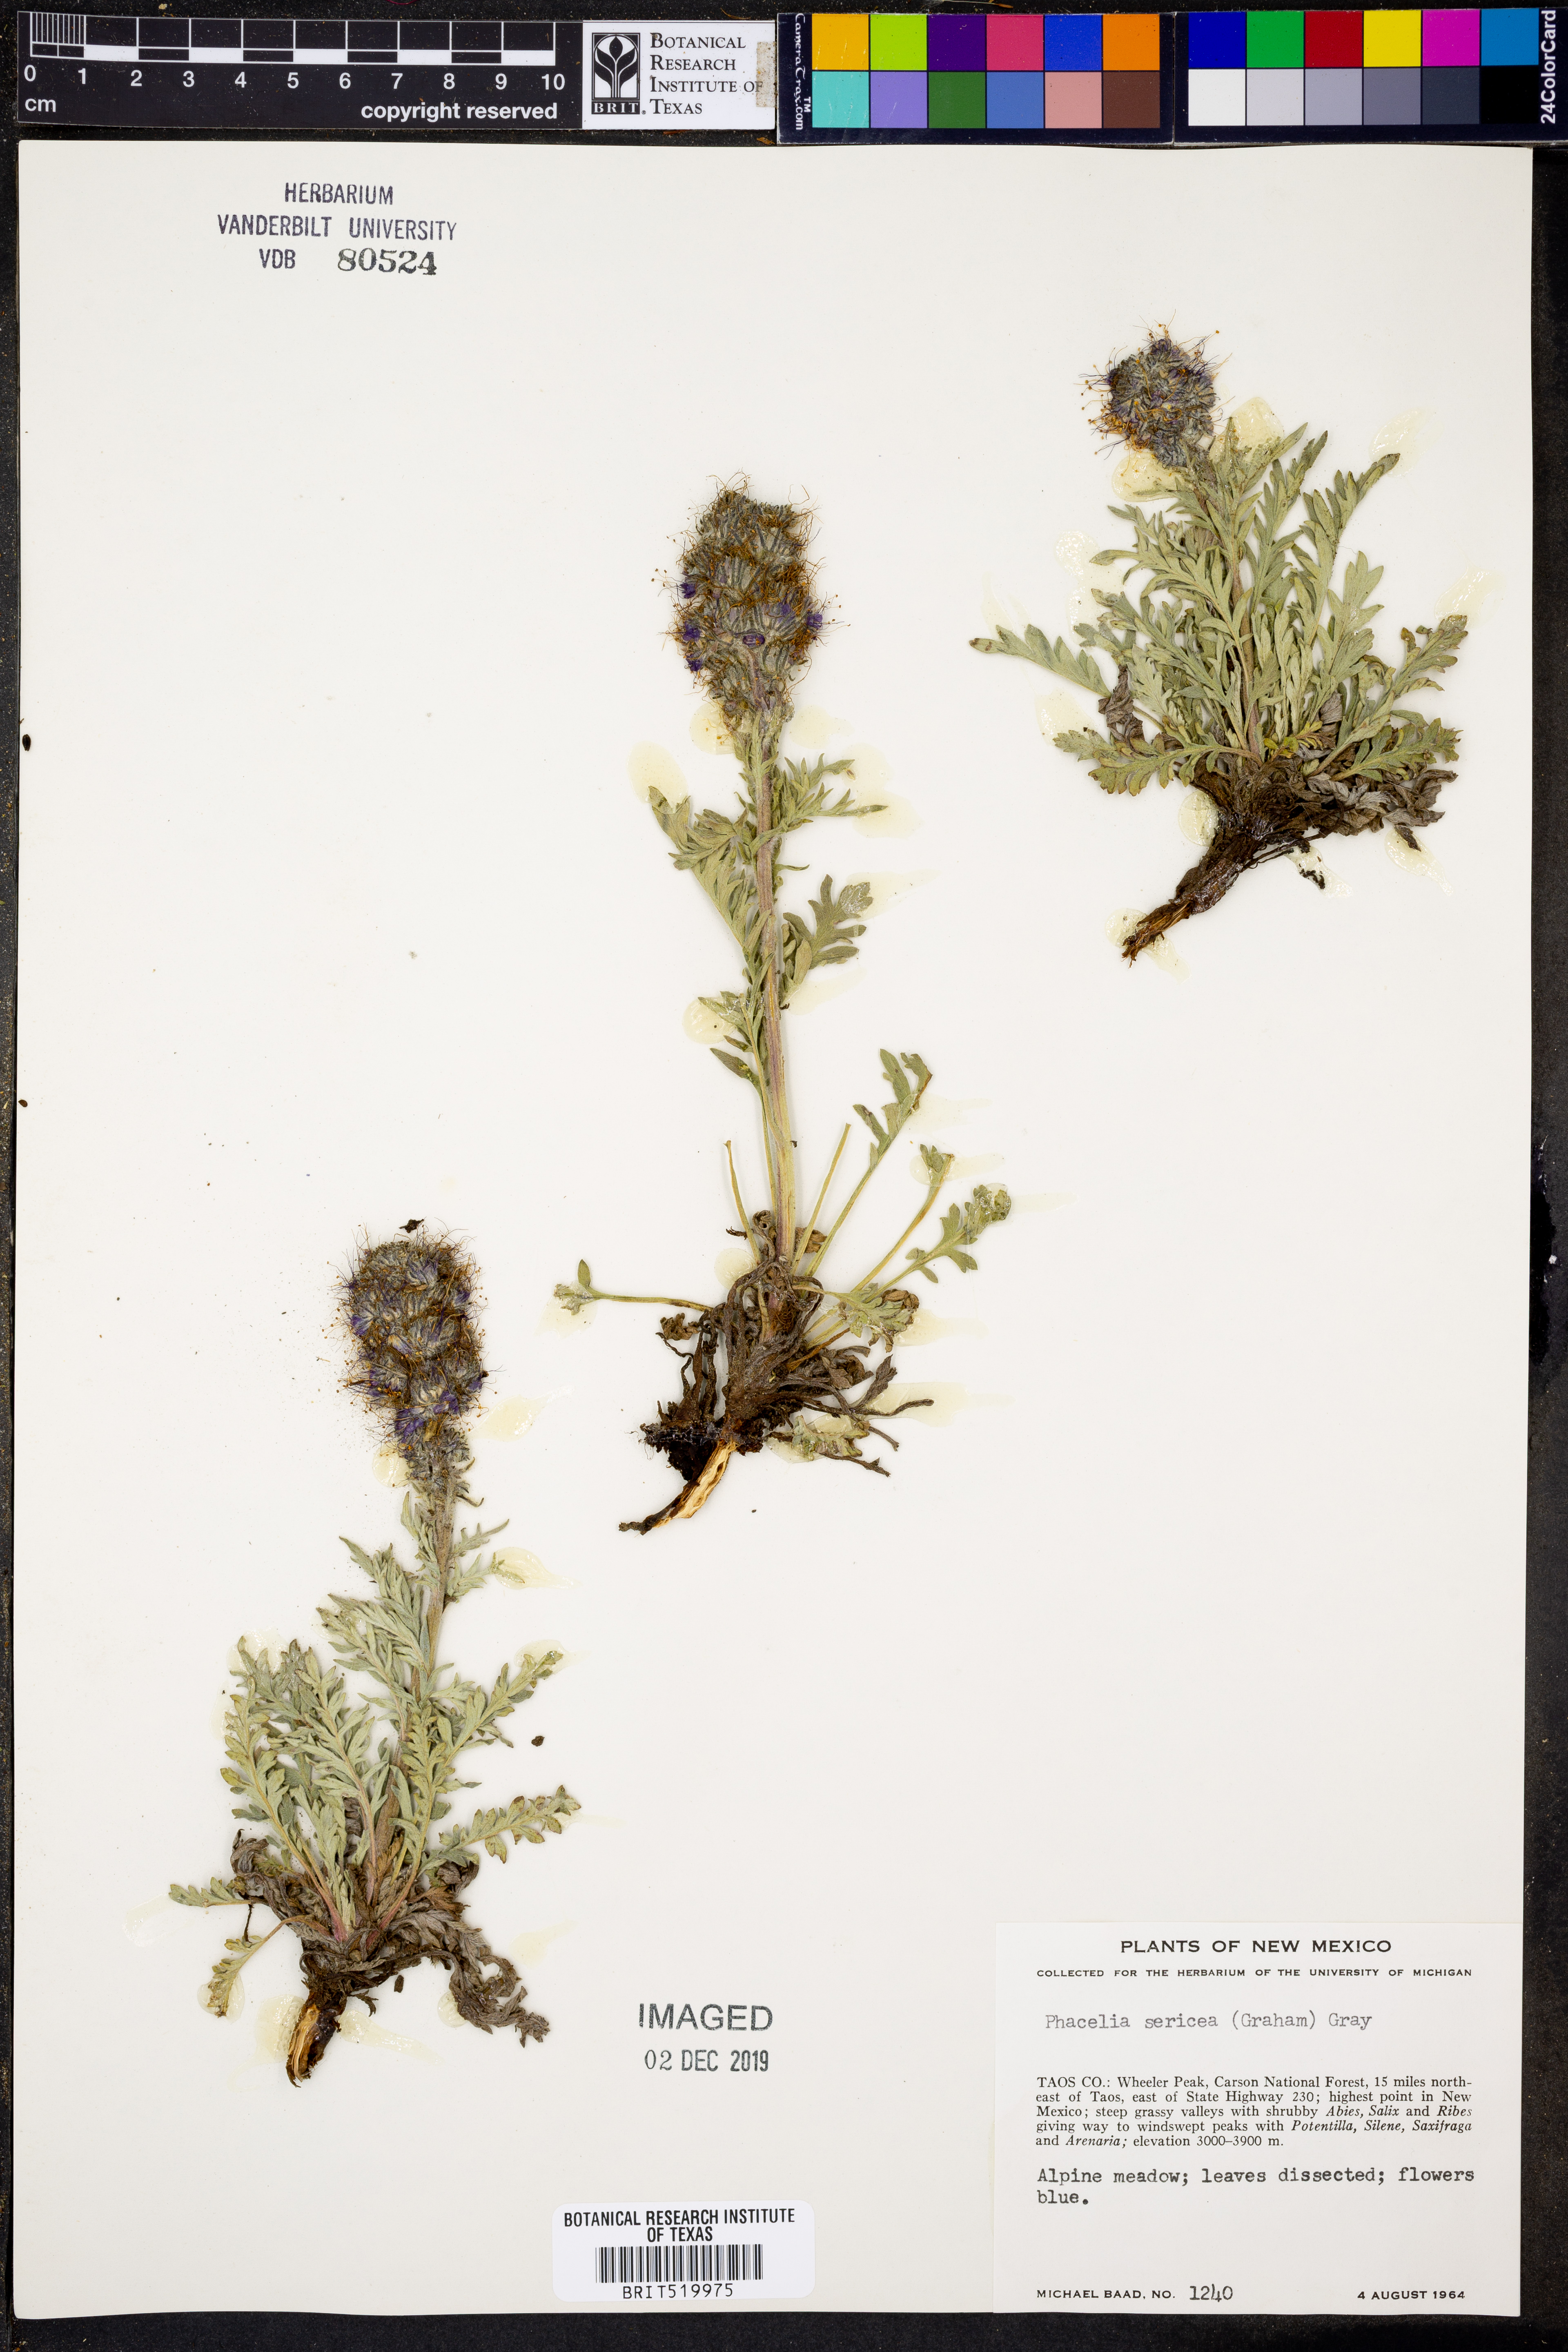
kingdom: Plantae
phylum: Tracheophyta
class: Magnoliopsida
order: Boraginales
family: Hydrophyllaceae
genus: Phacelia
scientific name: Phacelia sericea
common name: Silky phacelia
